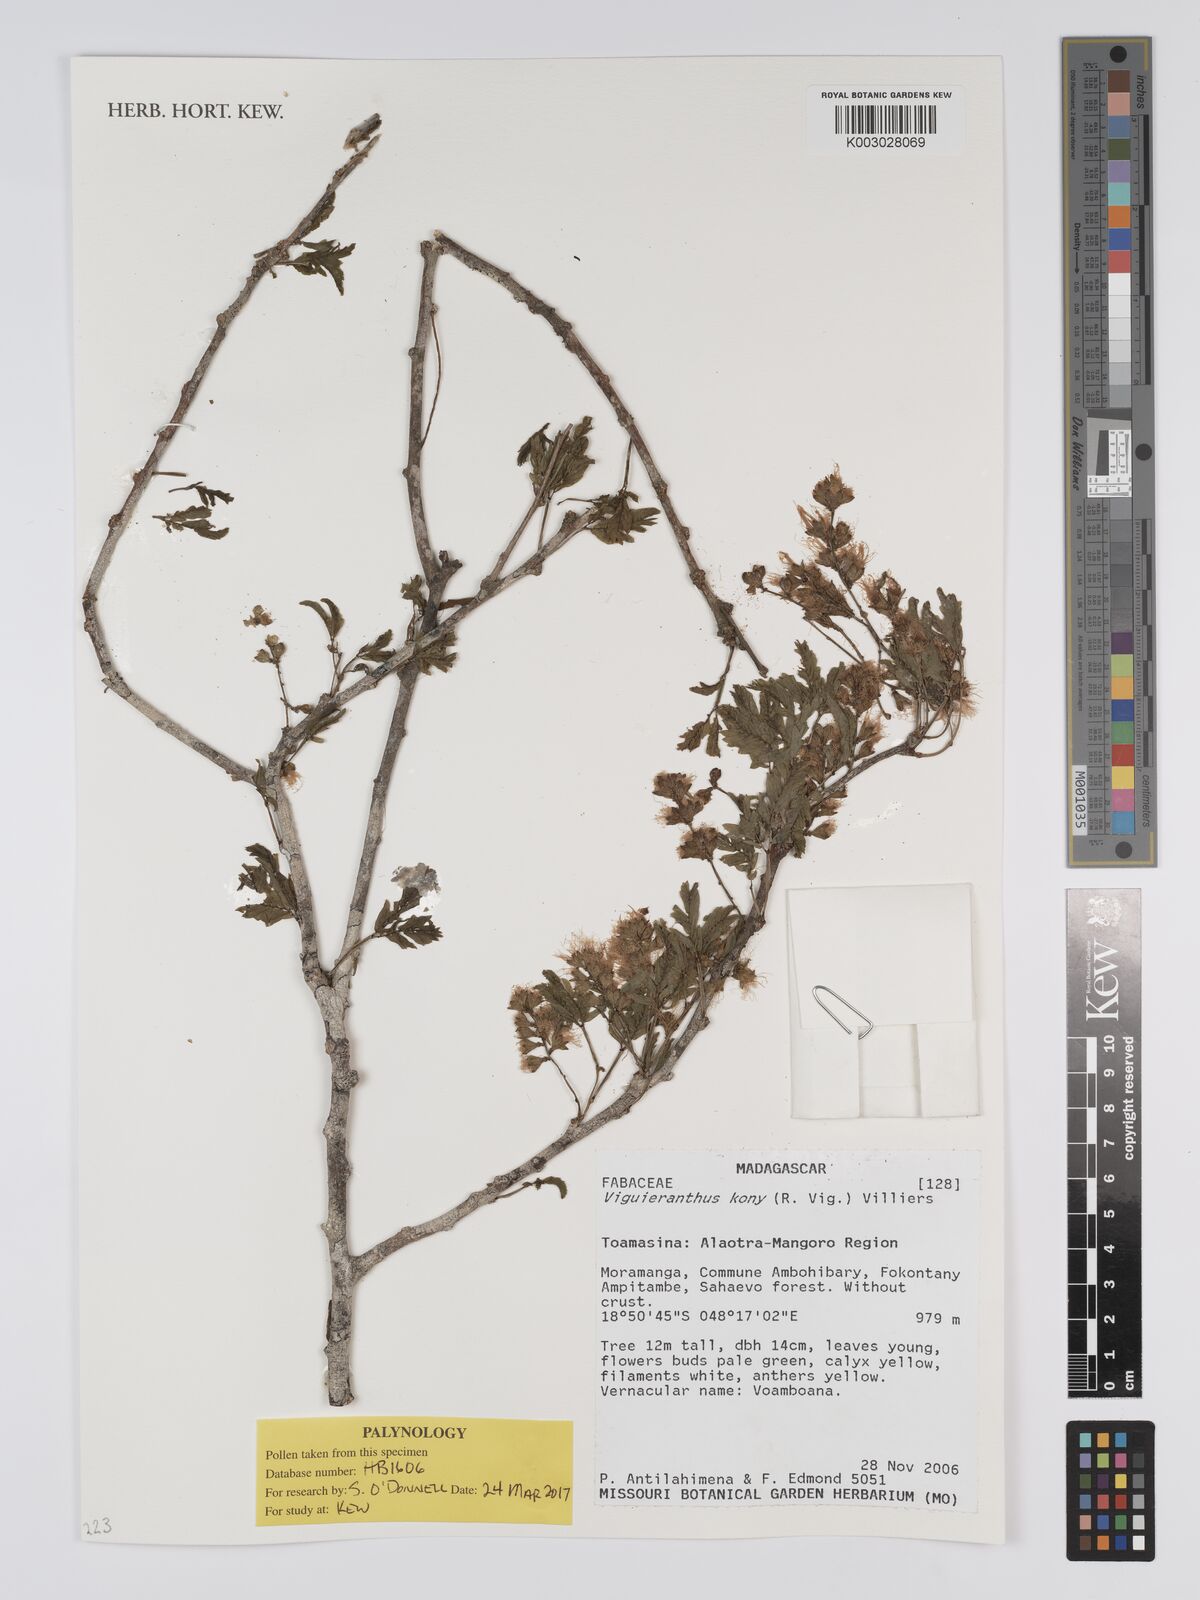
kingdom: Plantae
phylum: Tracheophyta
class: Magnoliopsida
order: Fabales
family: Fabaceae
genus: Viguieranthus
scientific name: Viguieranthus kony
